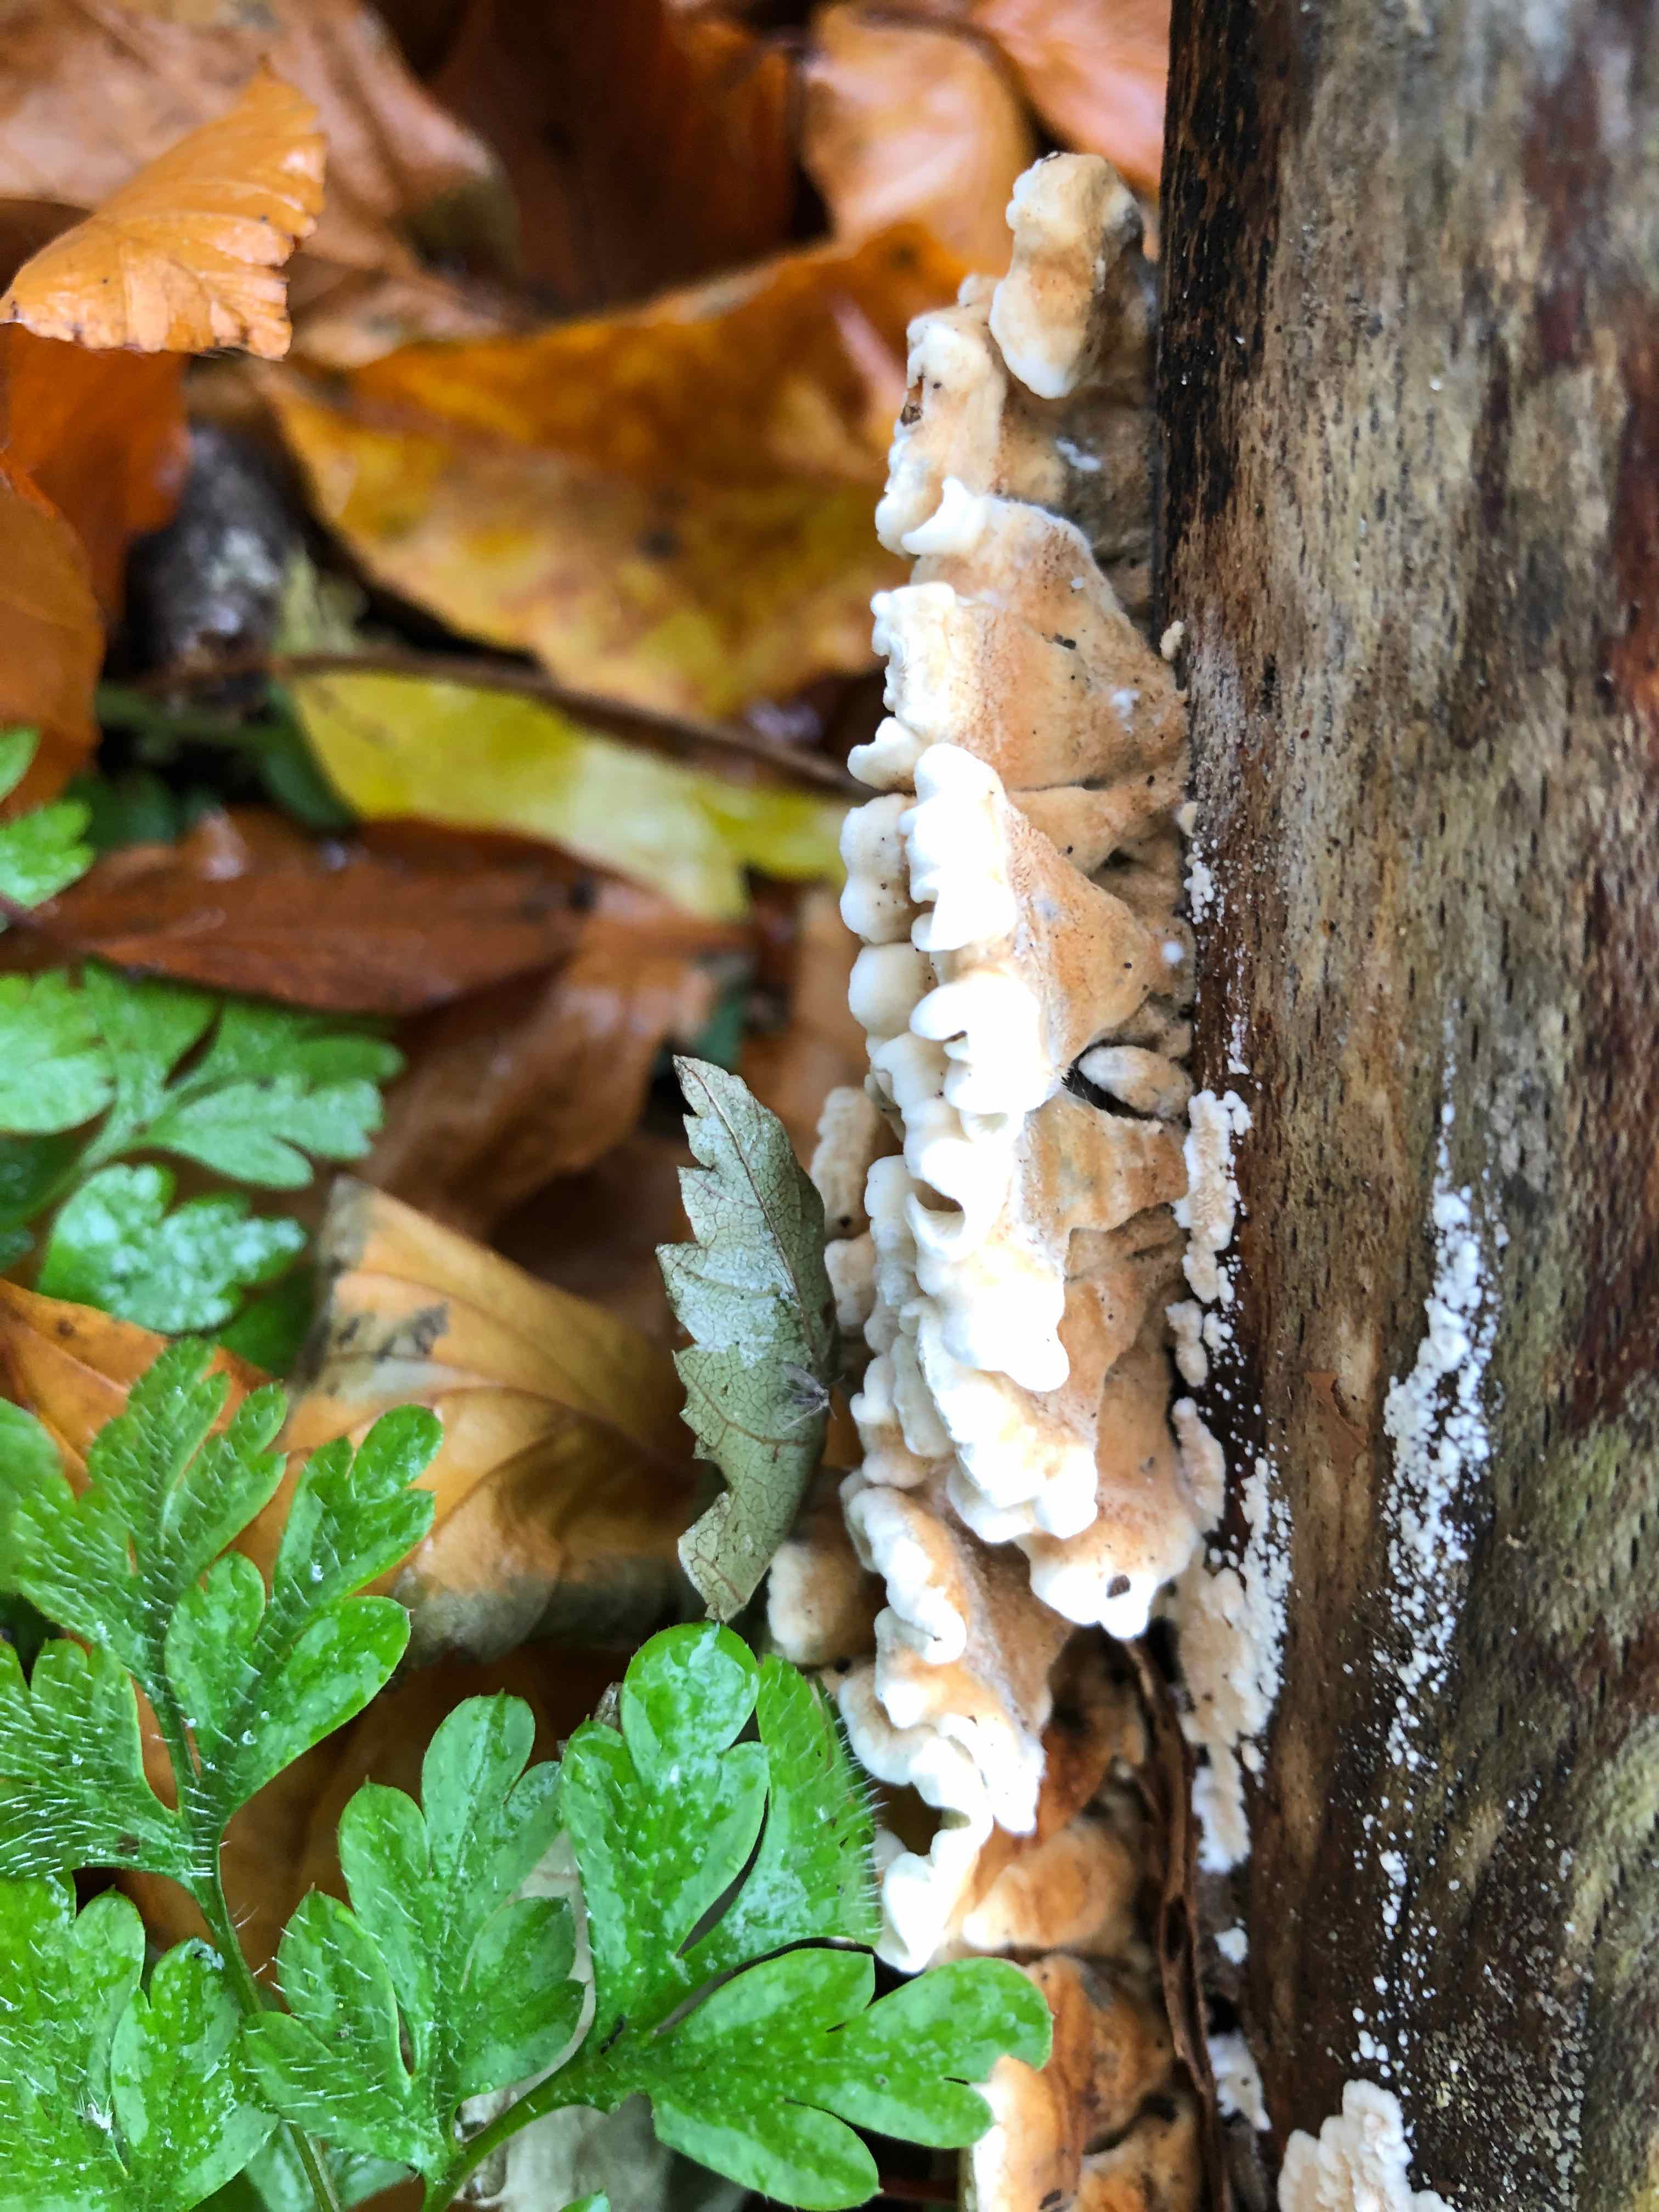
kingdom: Fungi
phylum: Basidiomycota
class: Agaricomycetes
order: Amylocorticiales
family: Amylocorticiaceae
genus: Plicaturopsis
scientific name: Plicaturopsis crispa
